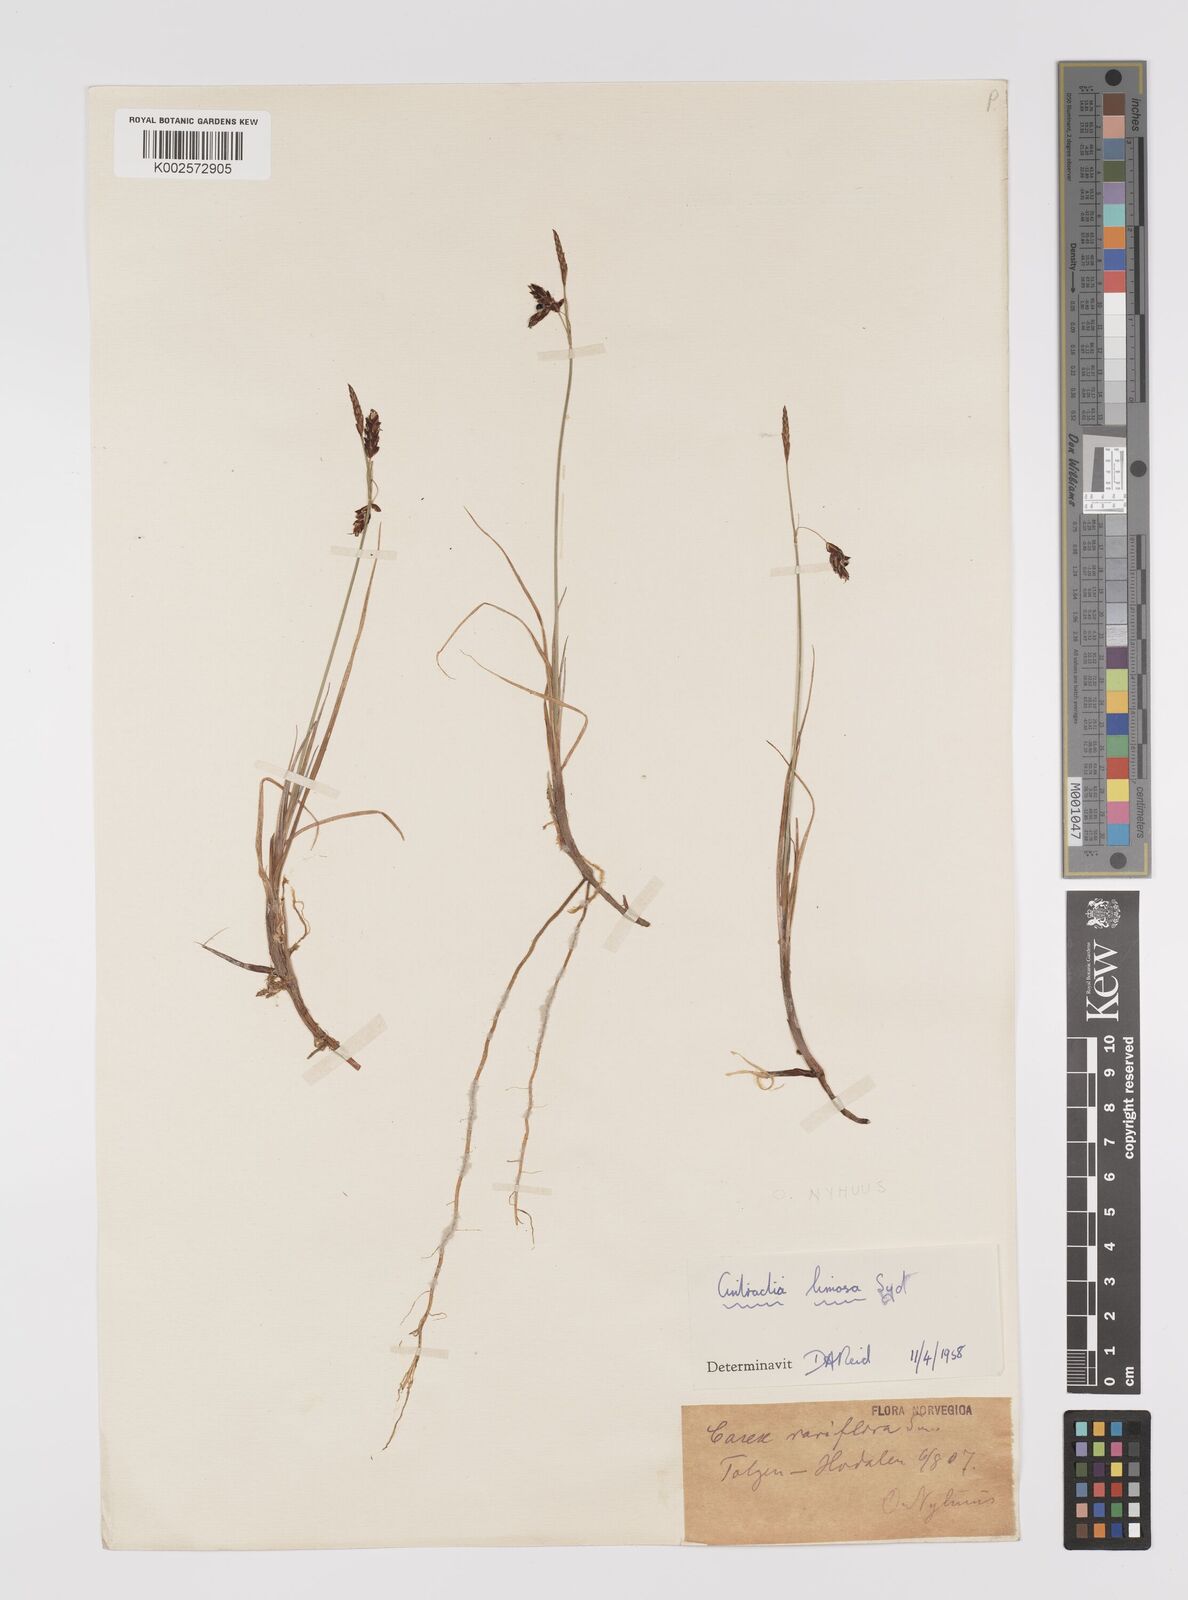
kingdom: Plantae
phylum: Tracheophyta
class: Liliopsida
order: Poales
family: Cyperaceae
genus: Carex
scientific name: Carex rariflora
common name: Loose-flowered alpine sedge
